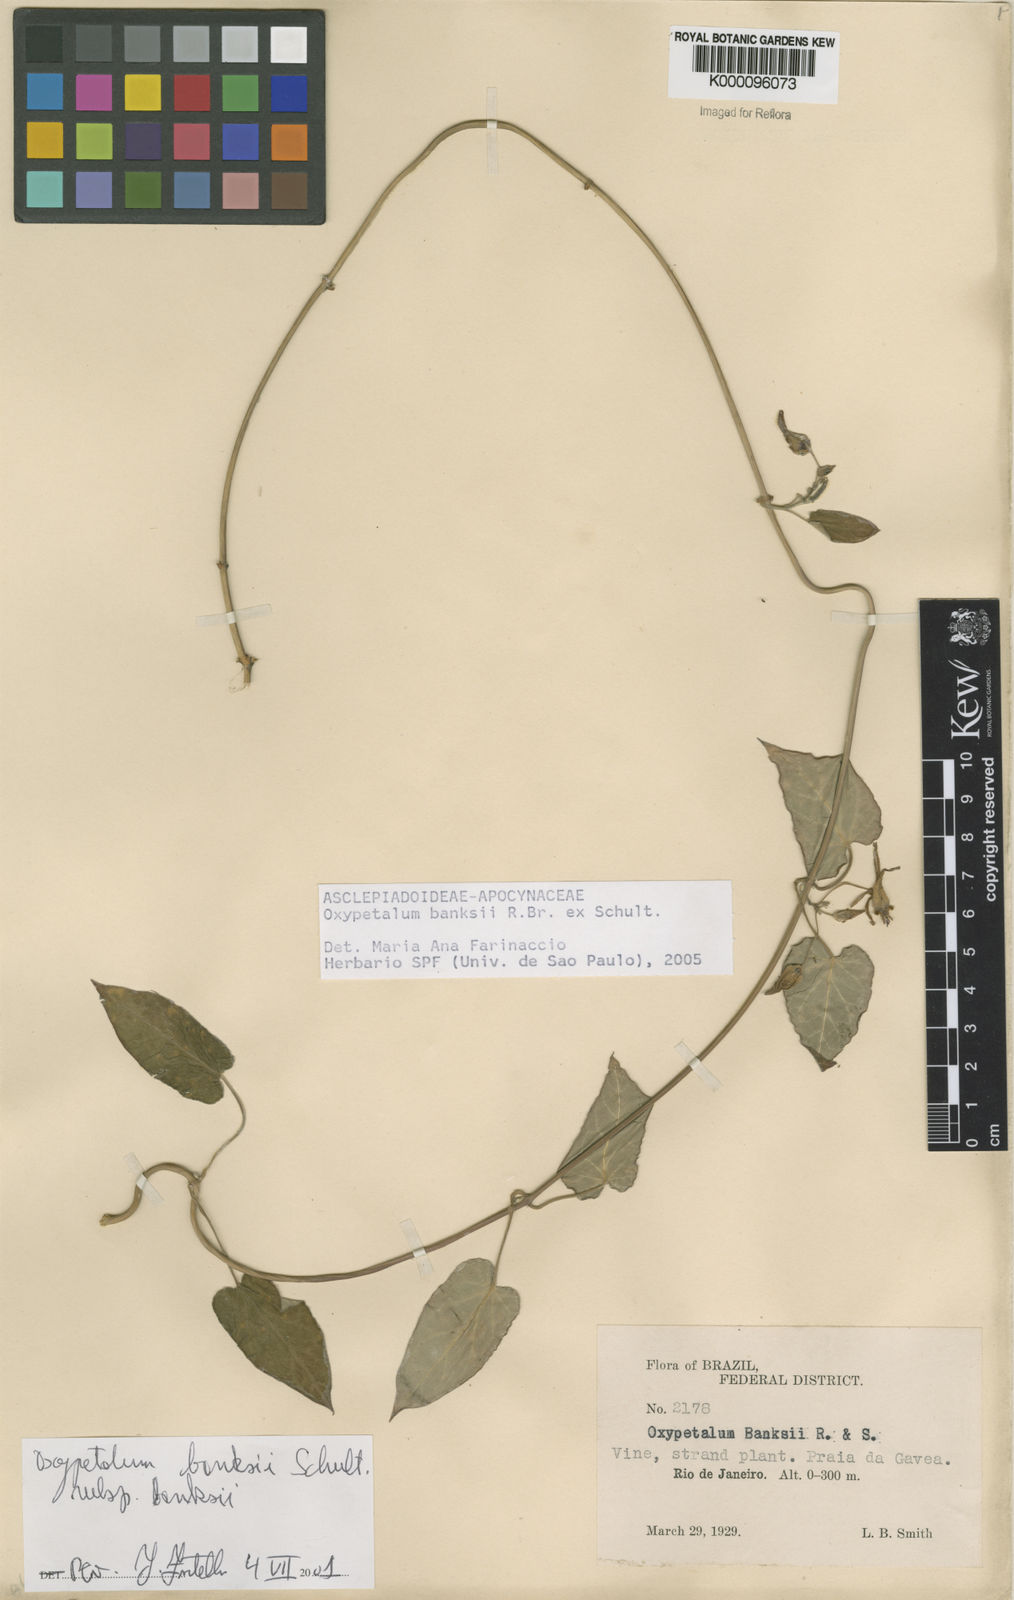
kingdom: Plantae
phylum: Tracheophyta
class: Magnoliopsida
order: Gentianales
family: Apocynaceae
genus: Oxypetalum
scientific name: Oxypetalum banksii
